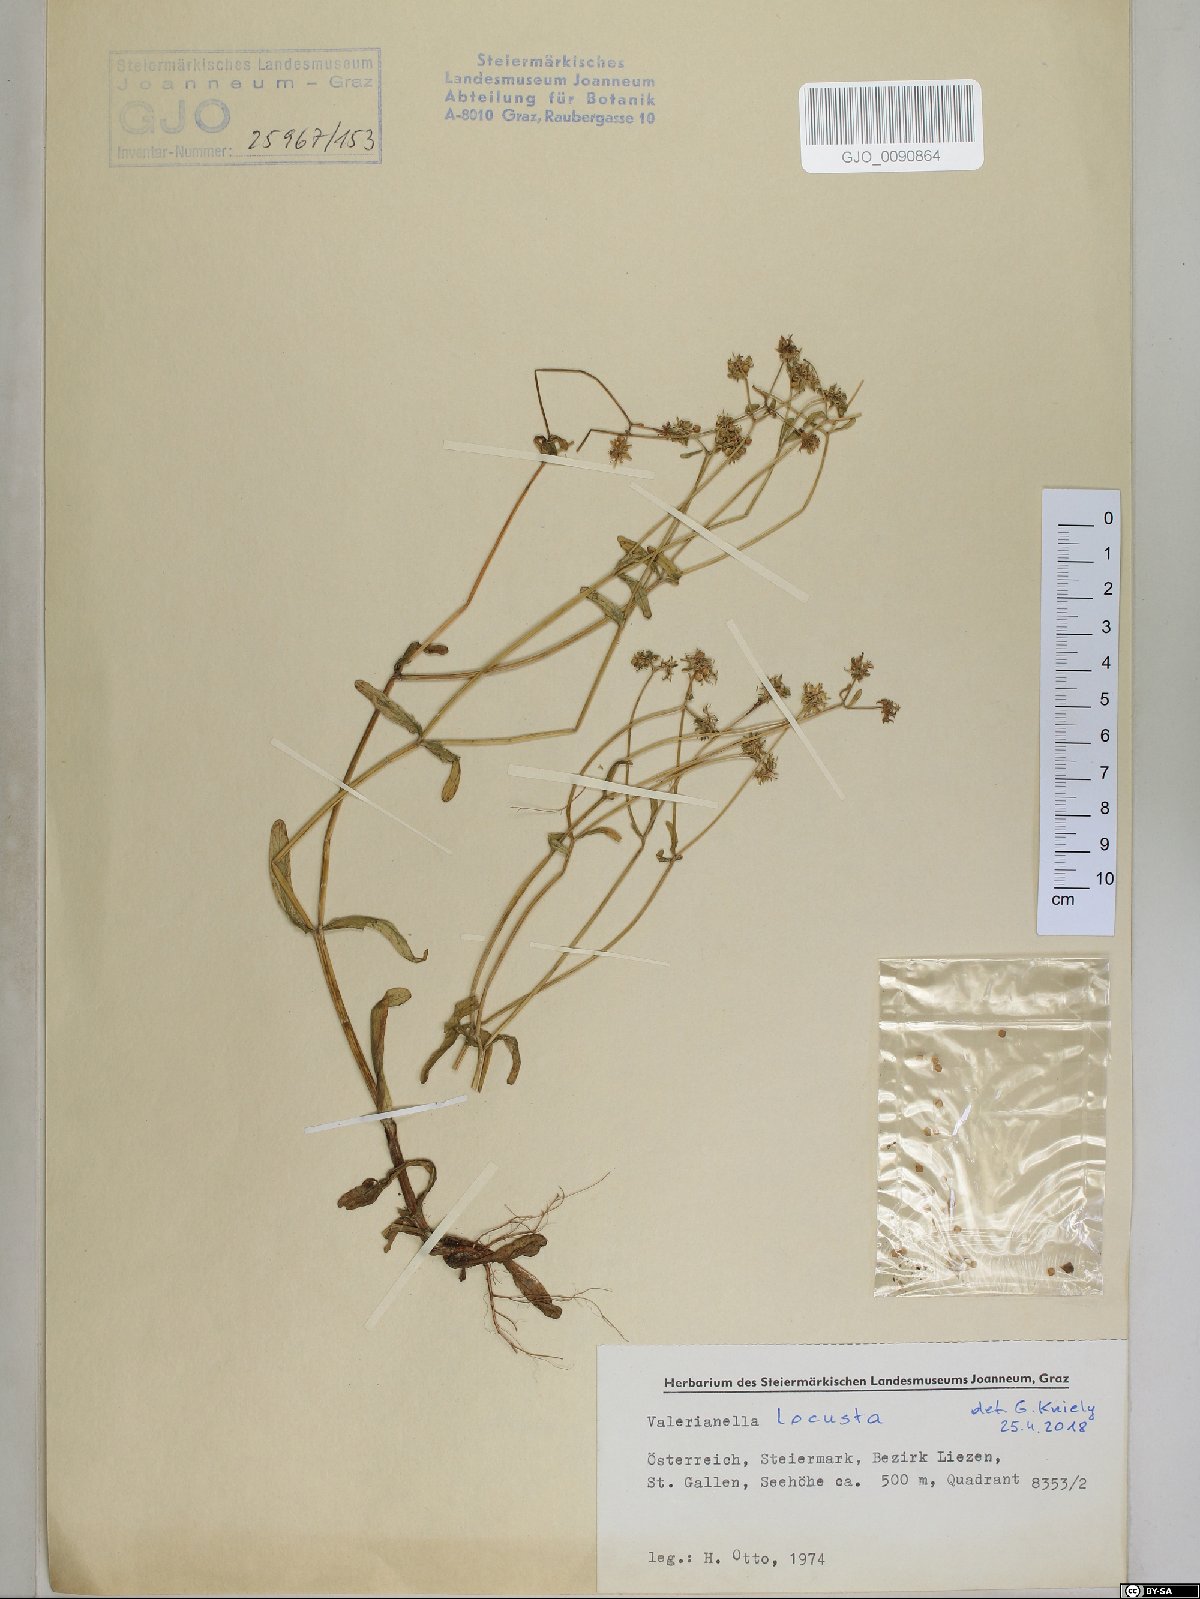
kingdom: Plantae
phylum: Tracheophyta
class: Magnoliopsida
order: Dipsacales
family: Caprifoliaceae
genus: Valerianella
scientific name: Valerianella locusta
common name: Common cornsalad
